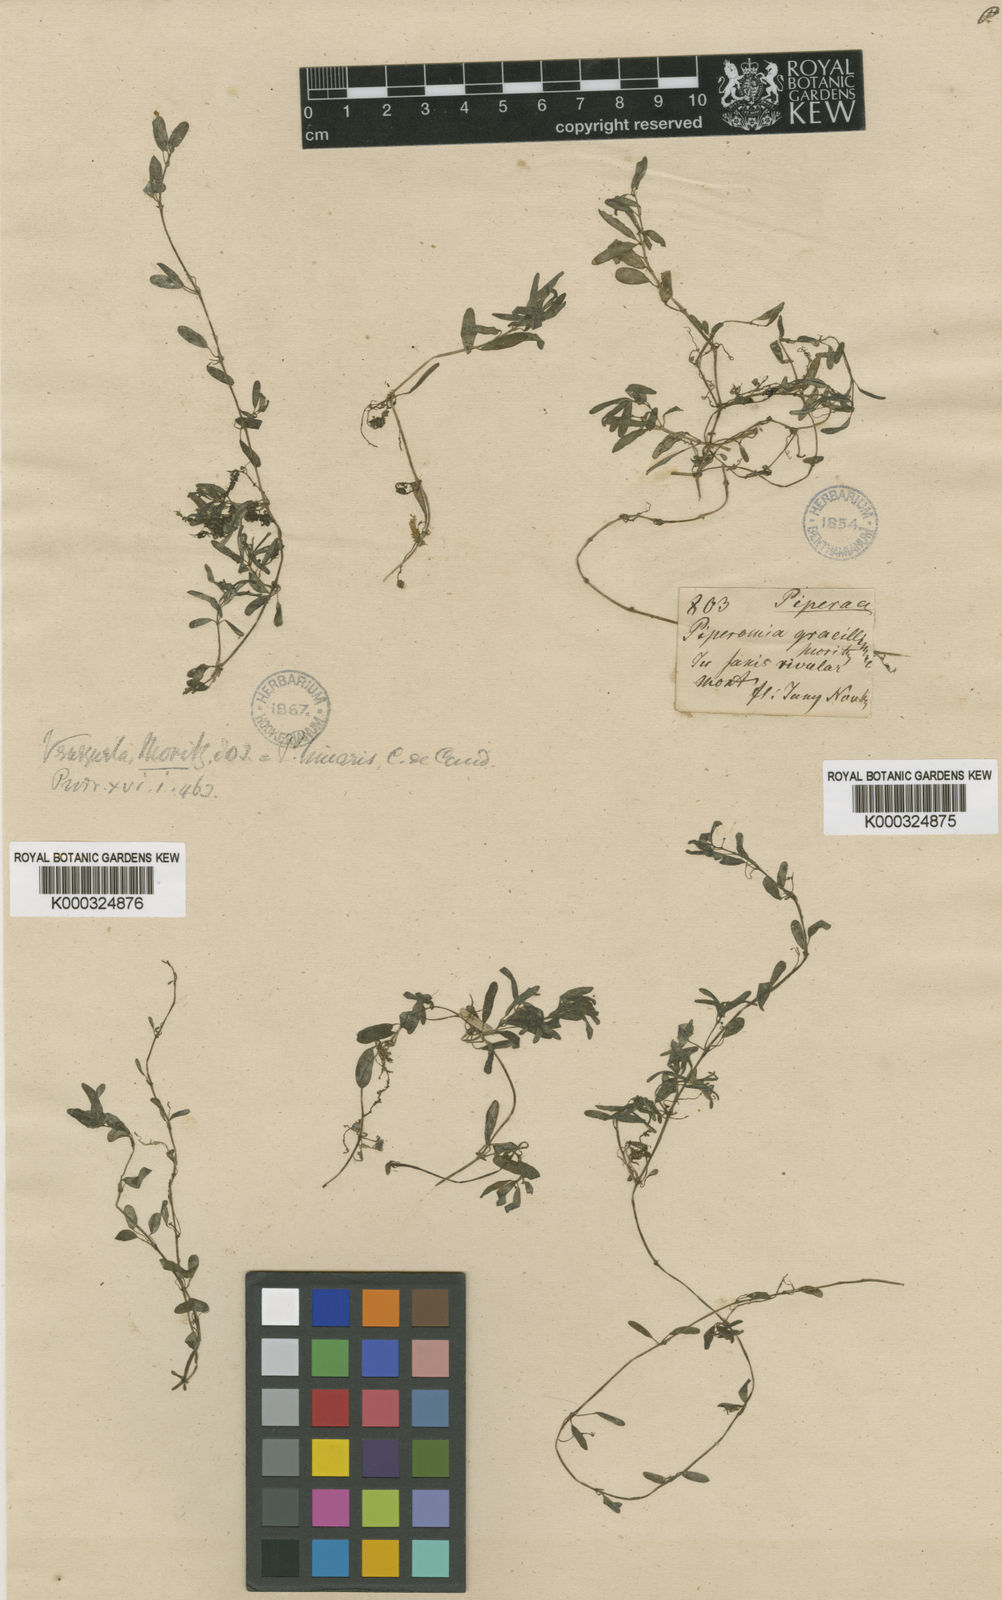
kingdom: Plantae
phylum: Tracheophyta
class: Magnoliopsida
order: Piperales
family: Piperaceae
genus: Peperomia
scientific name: Peperomia swartziana
